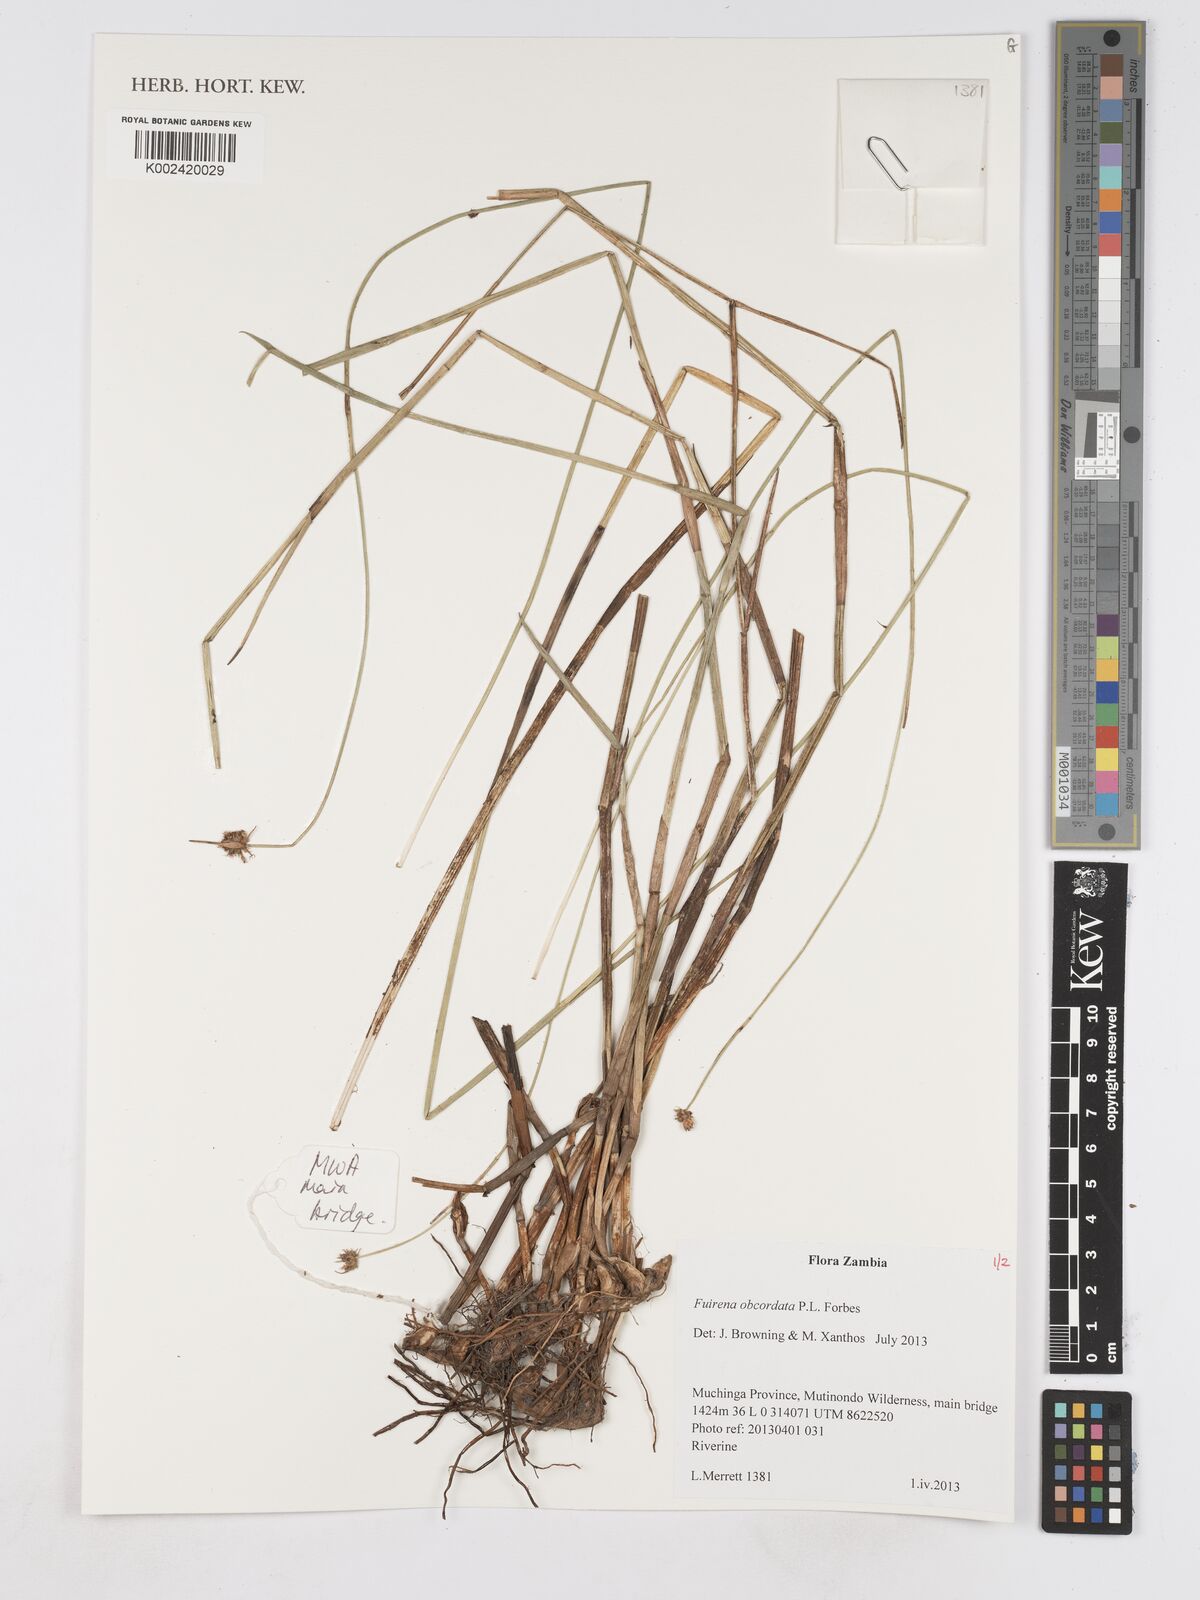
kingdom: Plantae
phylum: Tracheophyta
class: Liliopsida
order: Poales
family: Cyperaceae
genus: Fuirena
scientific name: Fuirena obcordata
